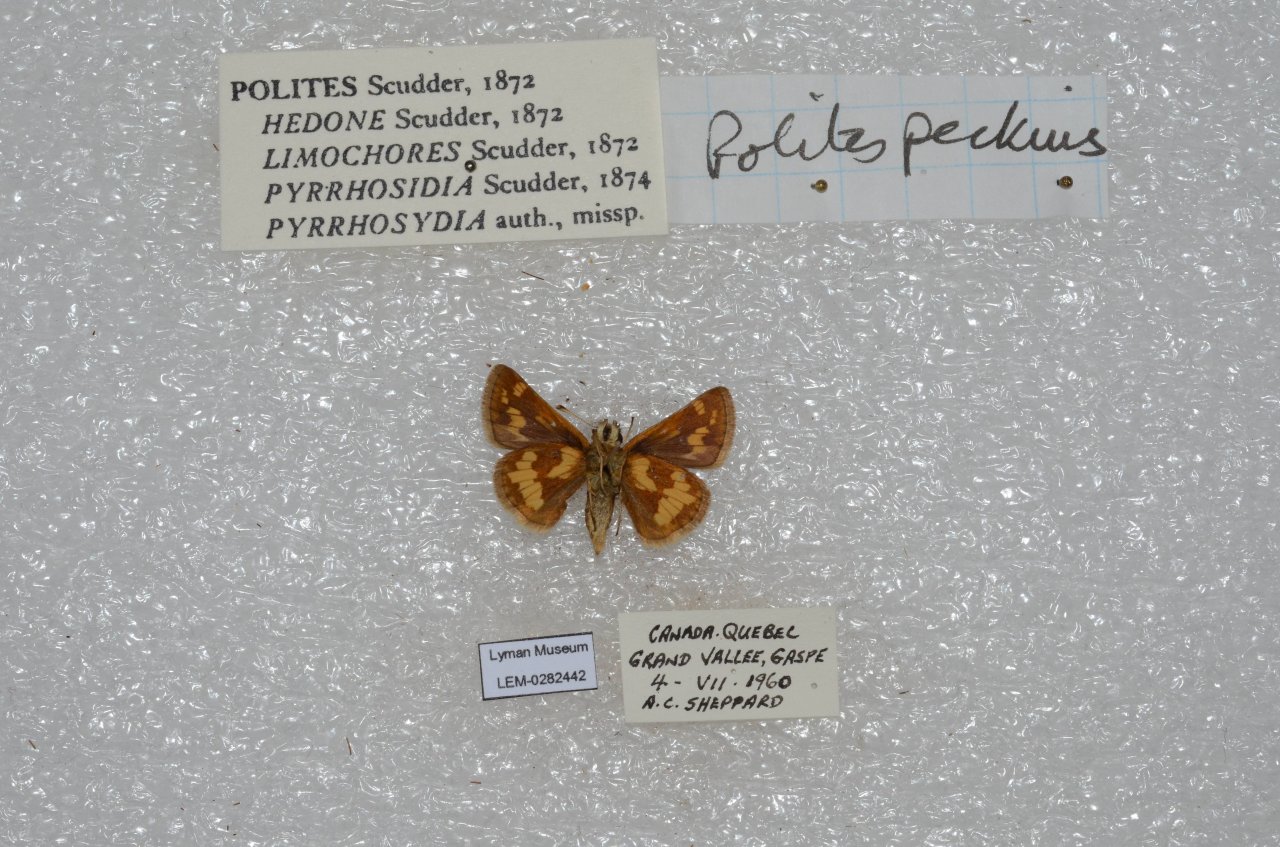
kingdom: Animalia
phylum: Arthropoda
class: Insecta
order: Lepidoptera
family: Hesperiidae
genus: Polites
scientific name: Polites coras
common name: Peck's Skipper
